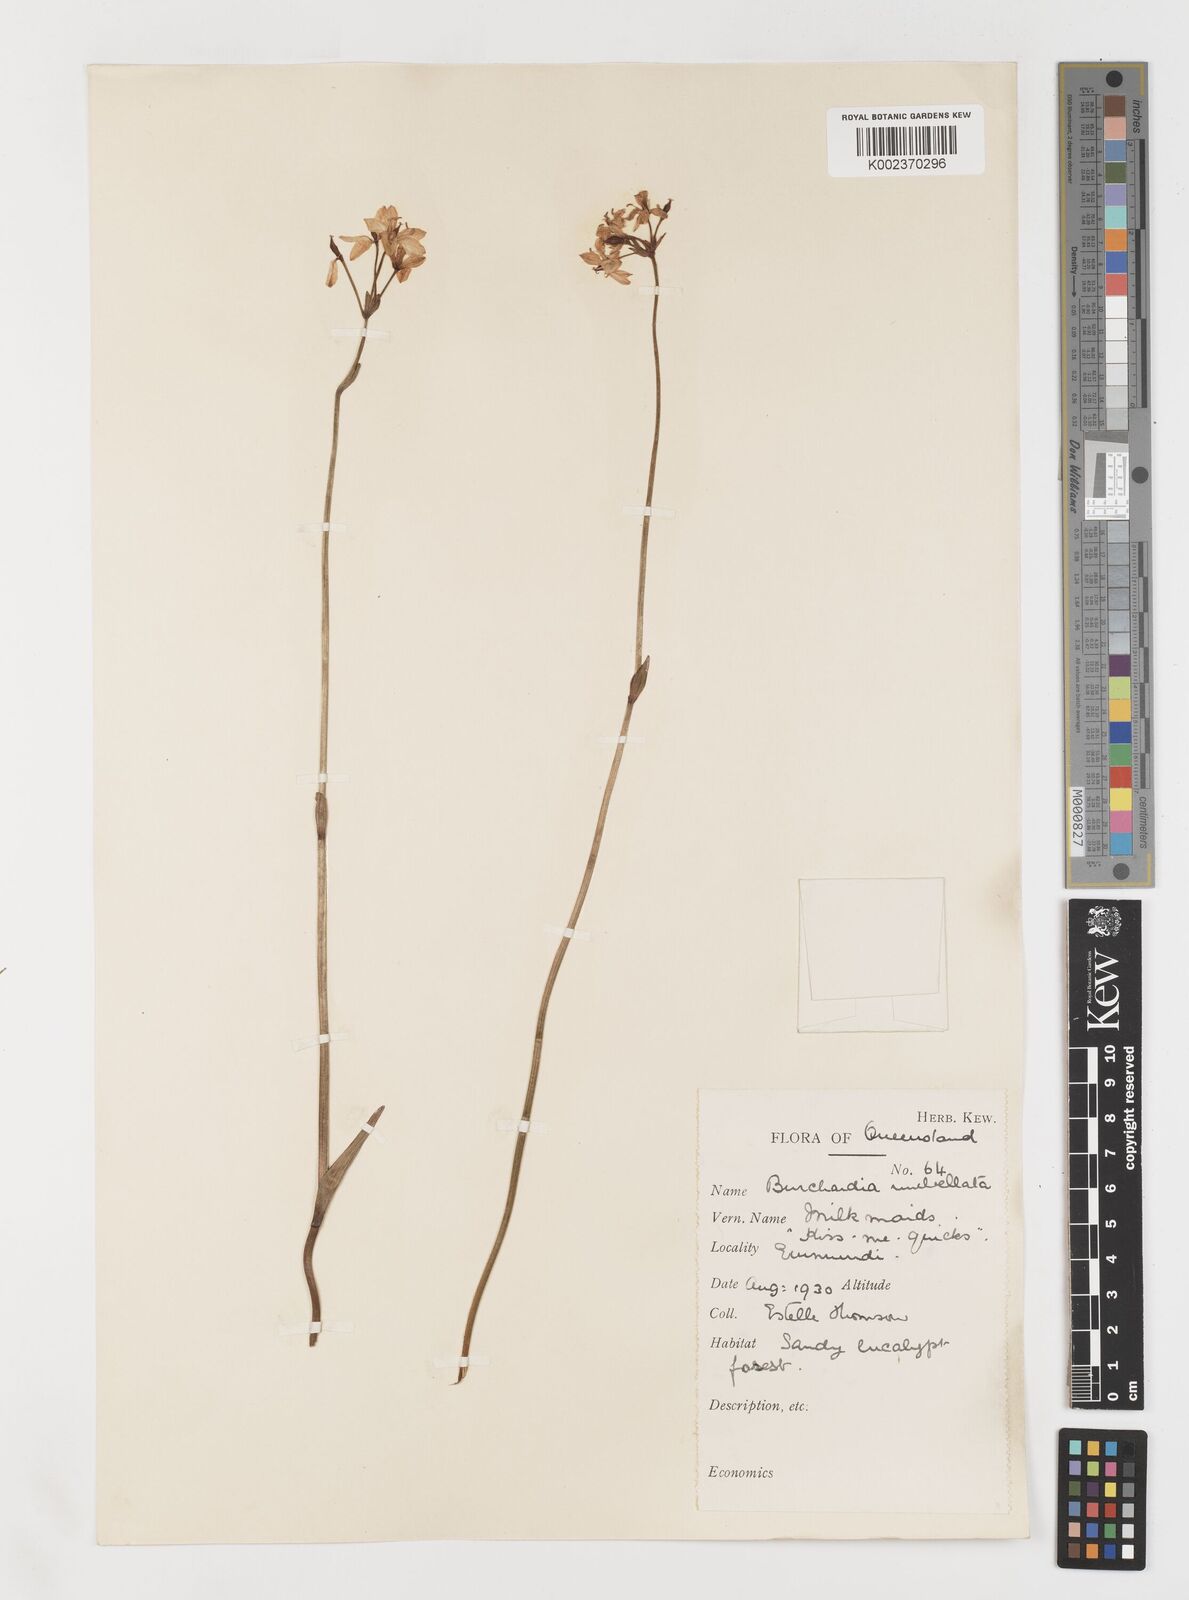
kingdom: Plantae
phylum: Tracheophyta
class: Liliopsida
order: Liliales
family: Colchicaceae
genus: Burchardia
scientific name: Burchardia umbellata
